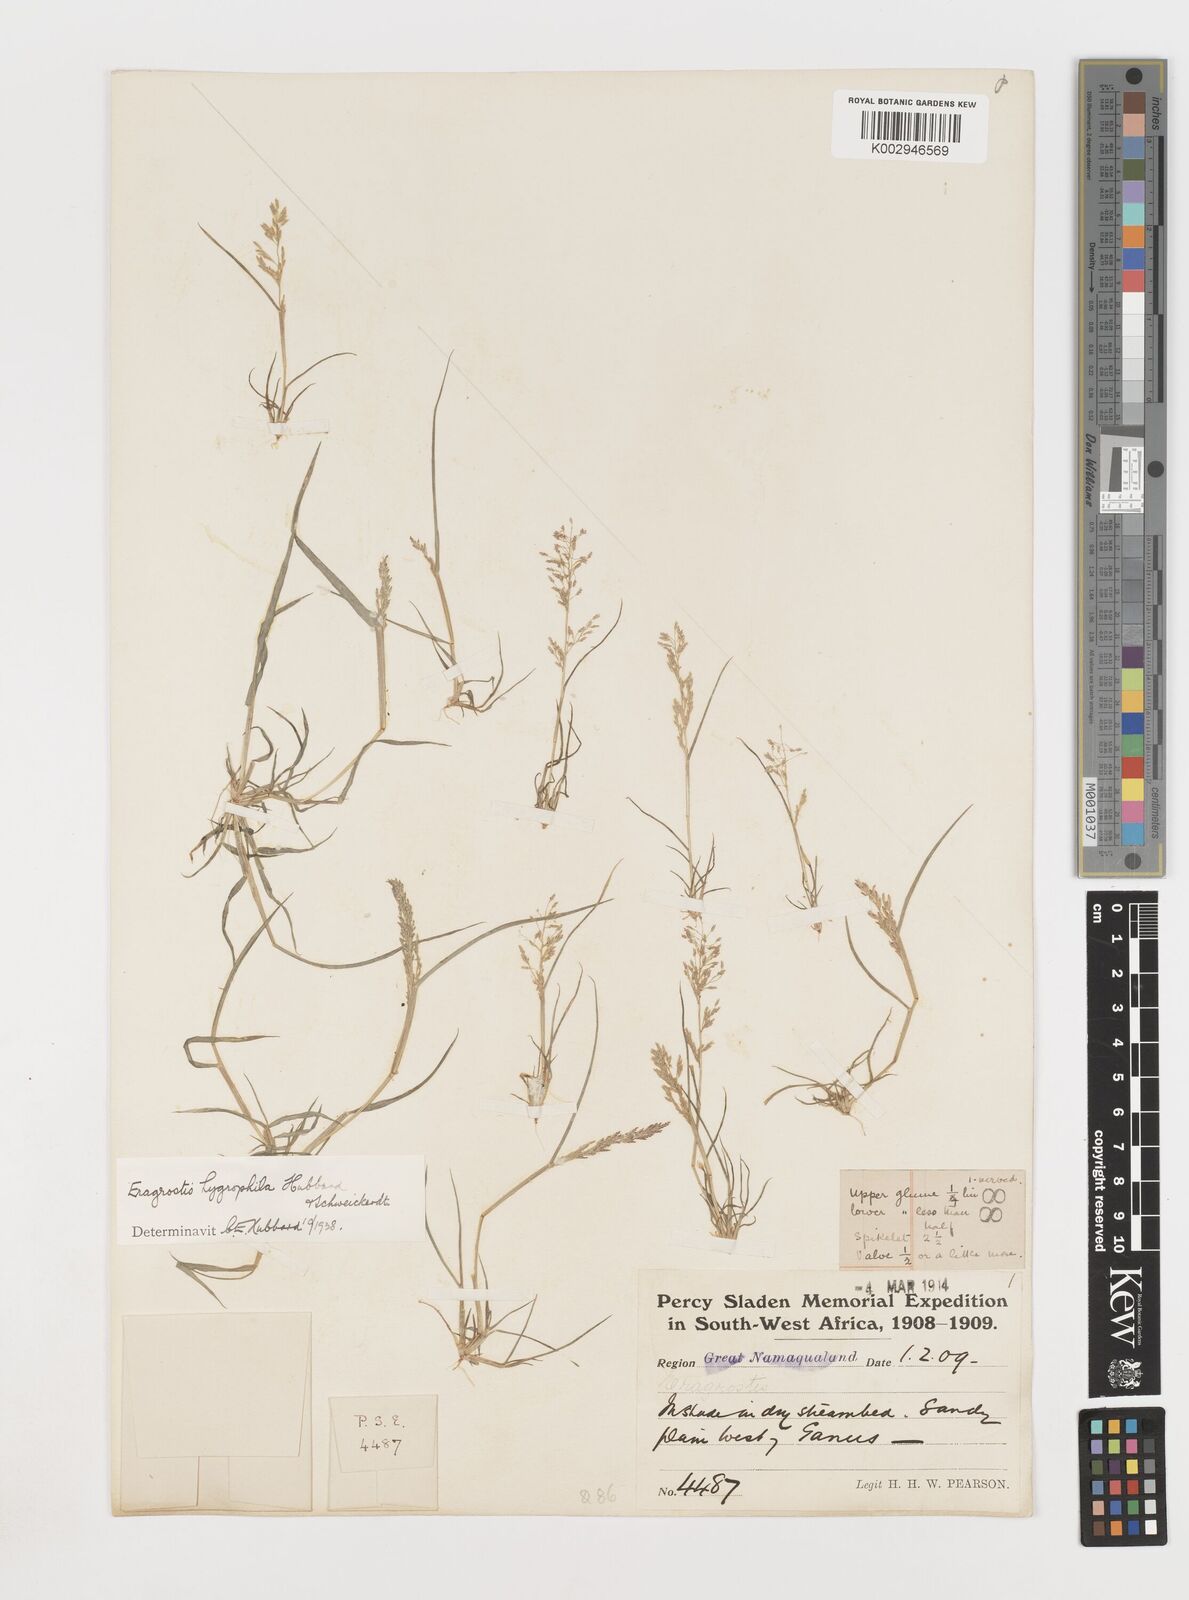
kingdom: Plantae
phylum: Tracheophyta
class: Liliopsida
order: Poales
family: Poaceae
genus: Eragrostis
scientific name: Eragrostis homomalla
